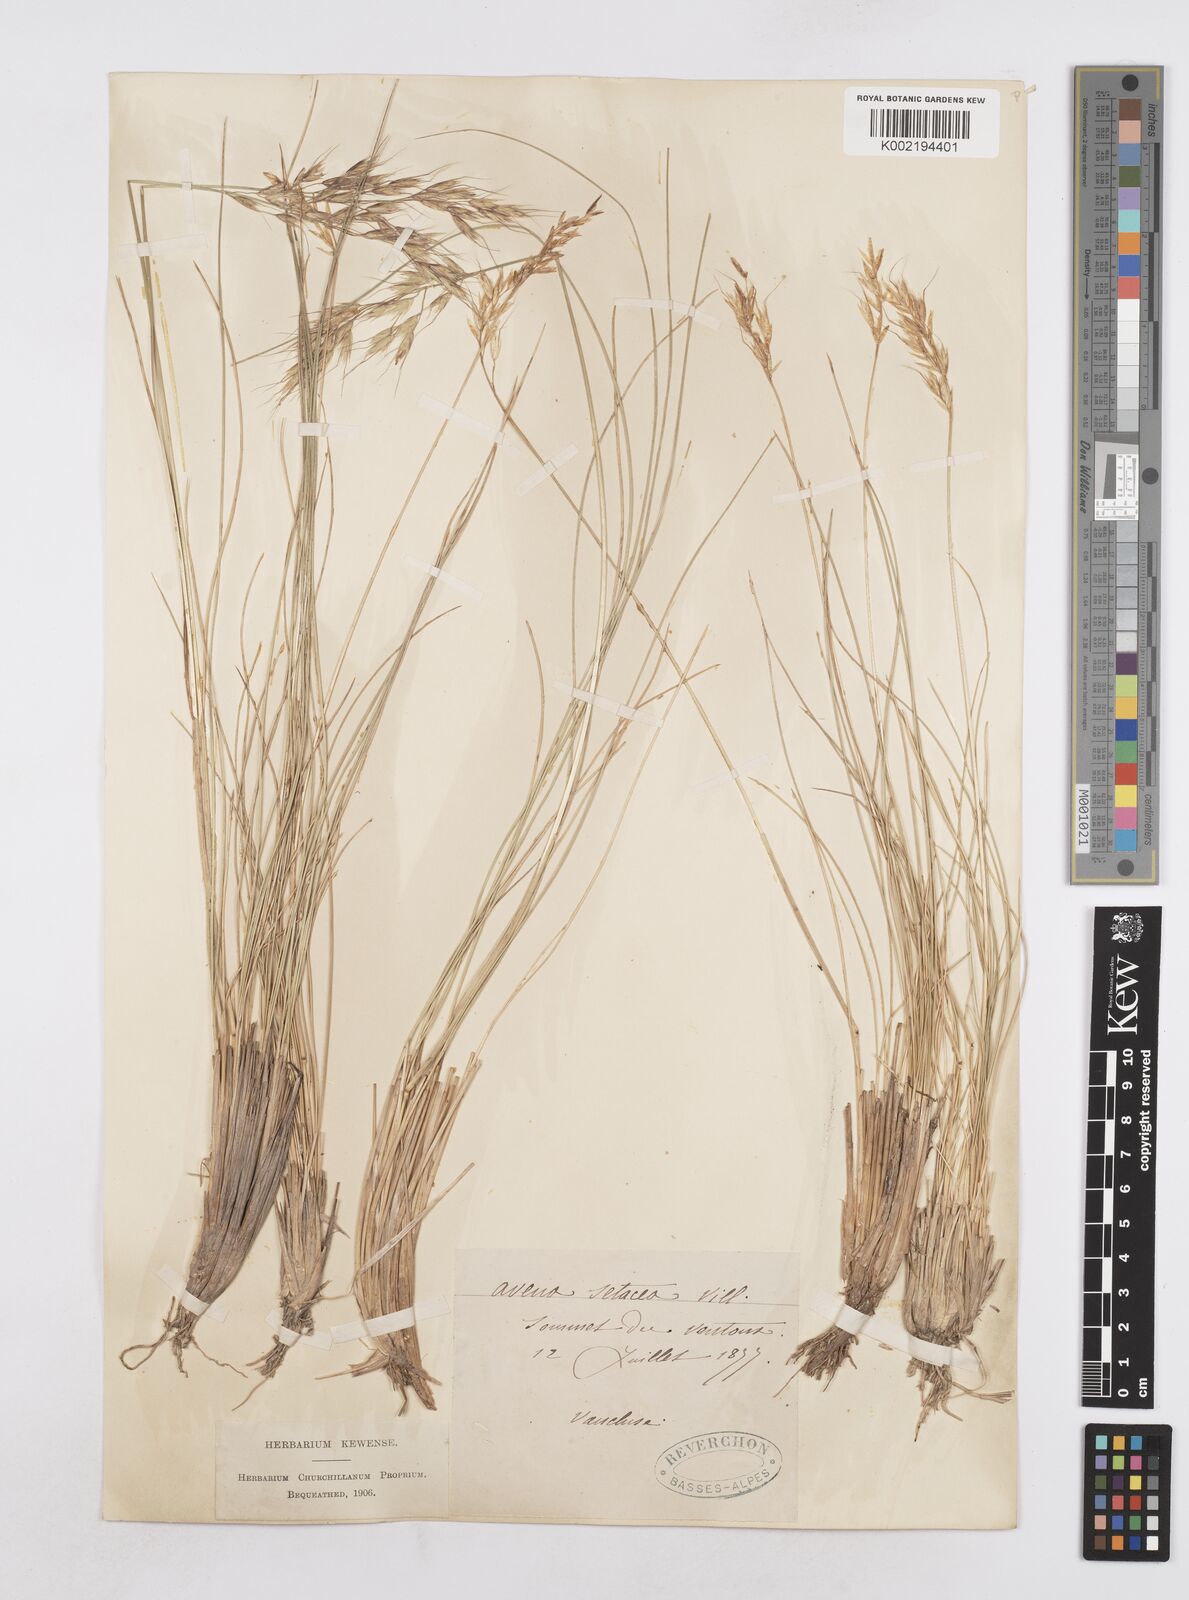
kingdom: Plantae
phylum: Tracheophyta
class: Liliopsida
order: Poales
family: Poaceae
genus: Helictotrichon
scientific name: Helictotrichon setaceum
